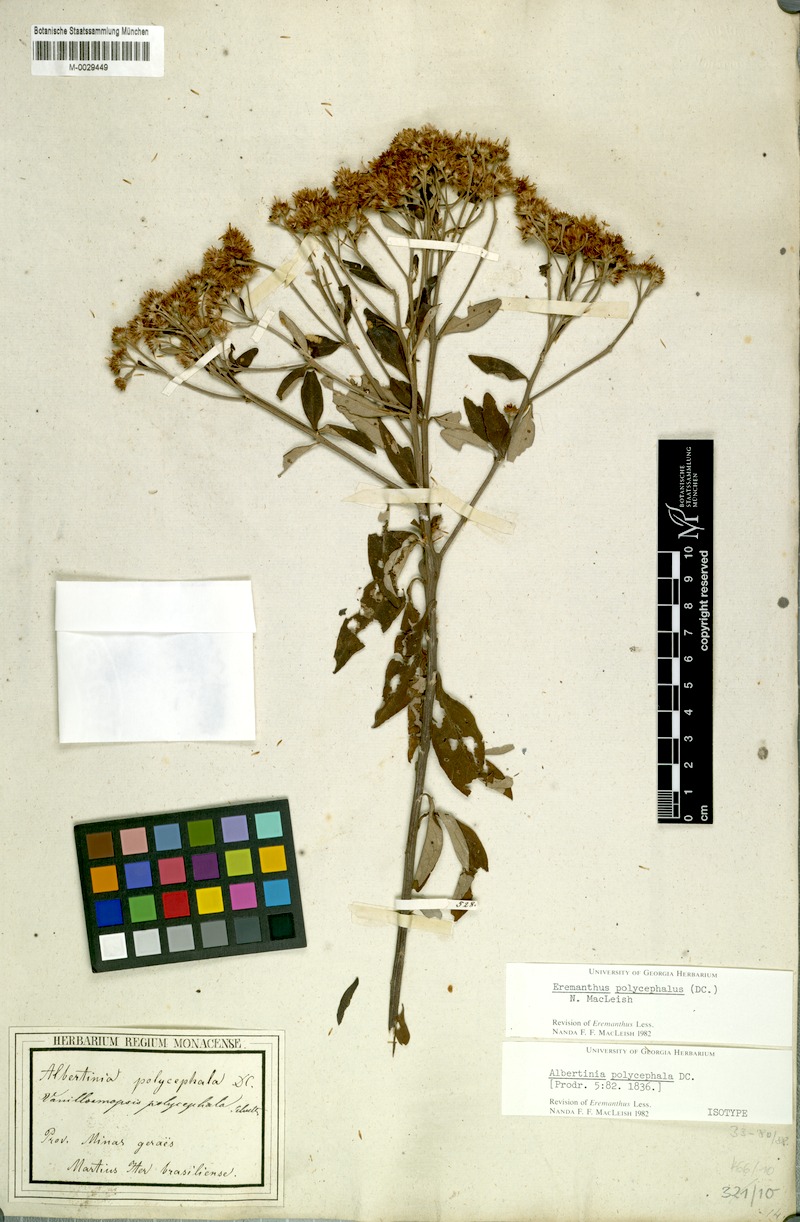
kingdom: Plantae
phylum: Tracheophyta
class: Magnoliopsida
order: Asterales
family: Asteraceae
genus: Eremanthus
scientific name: Eremanthus polycephalus
